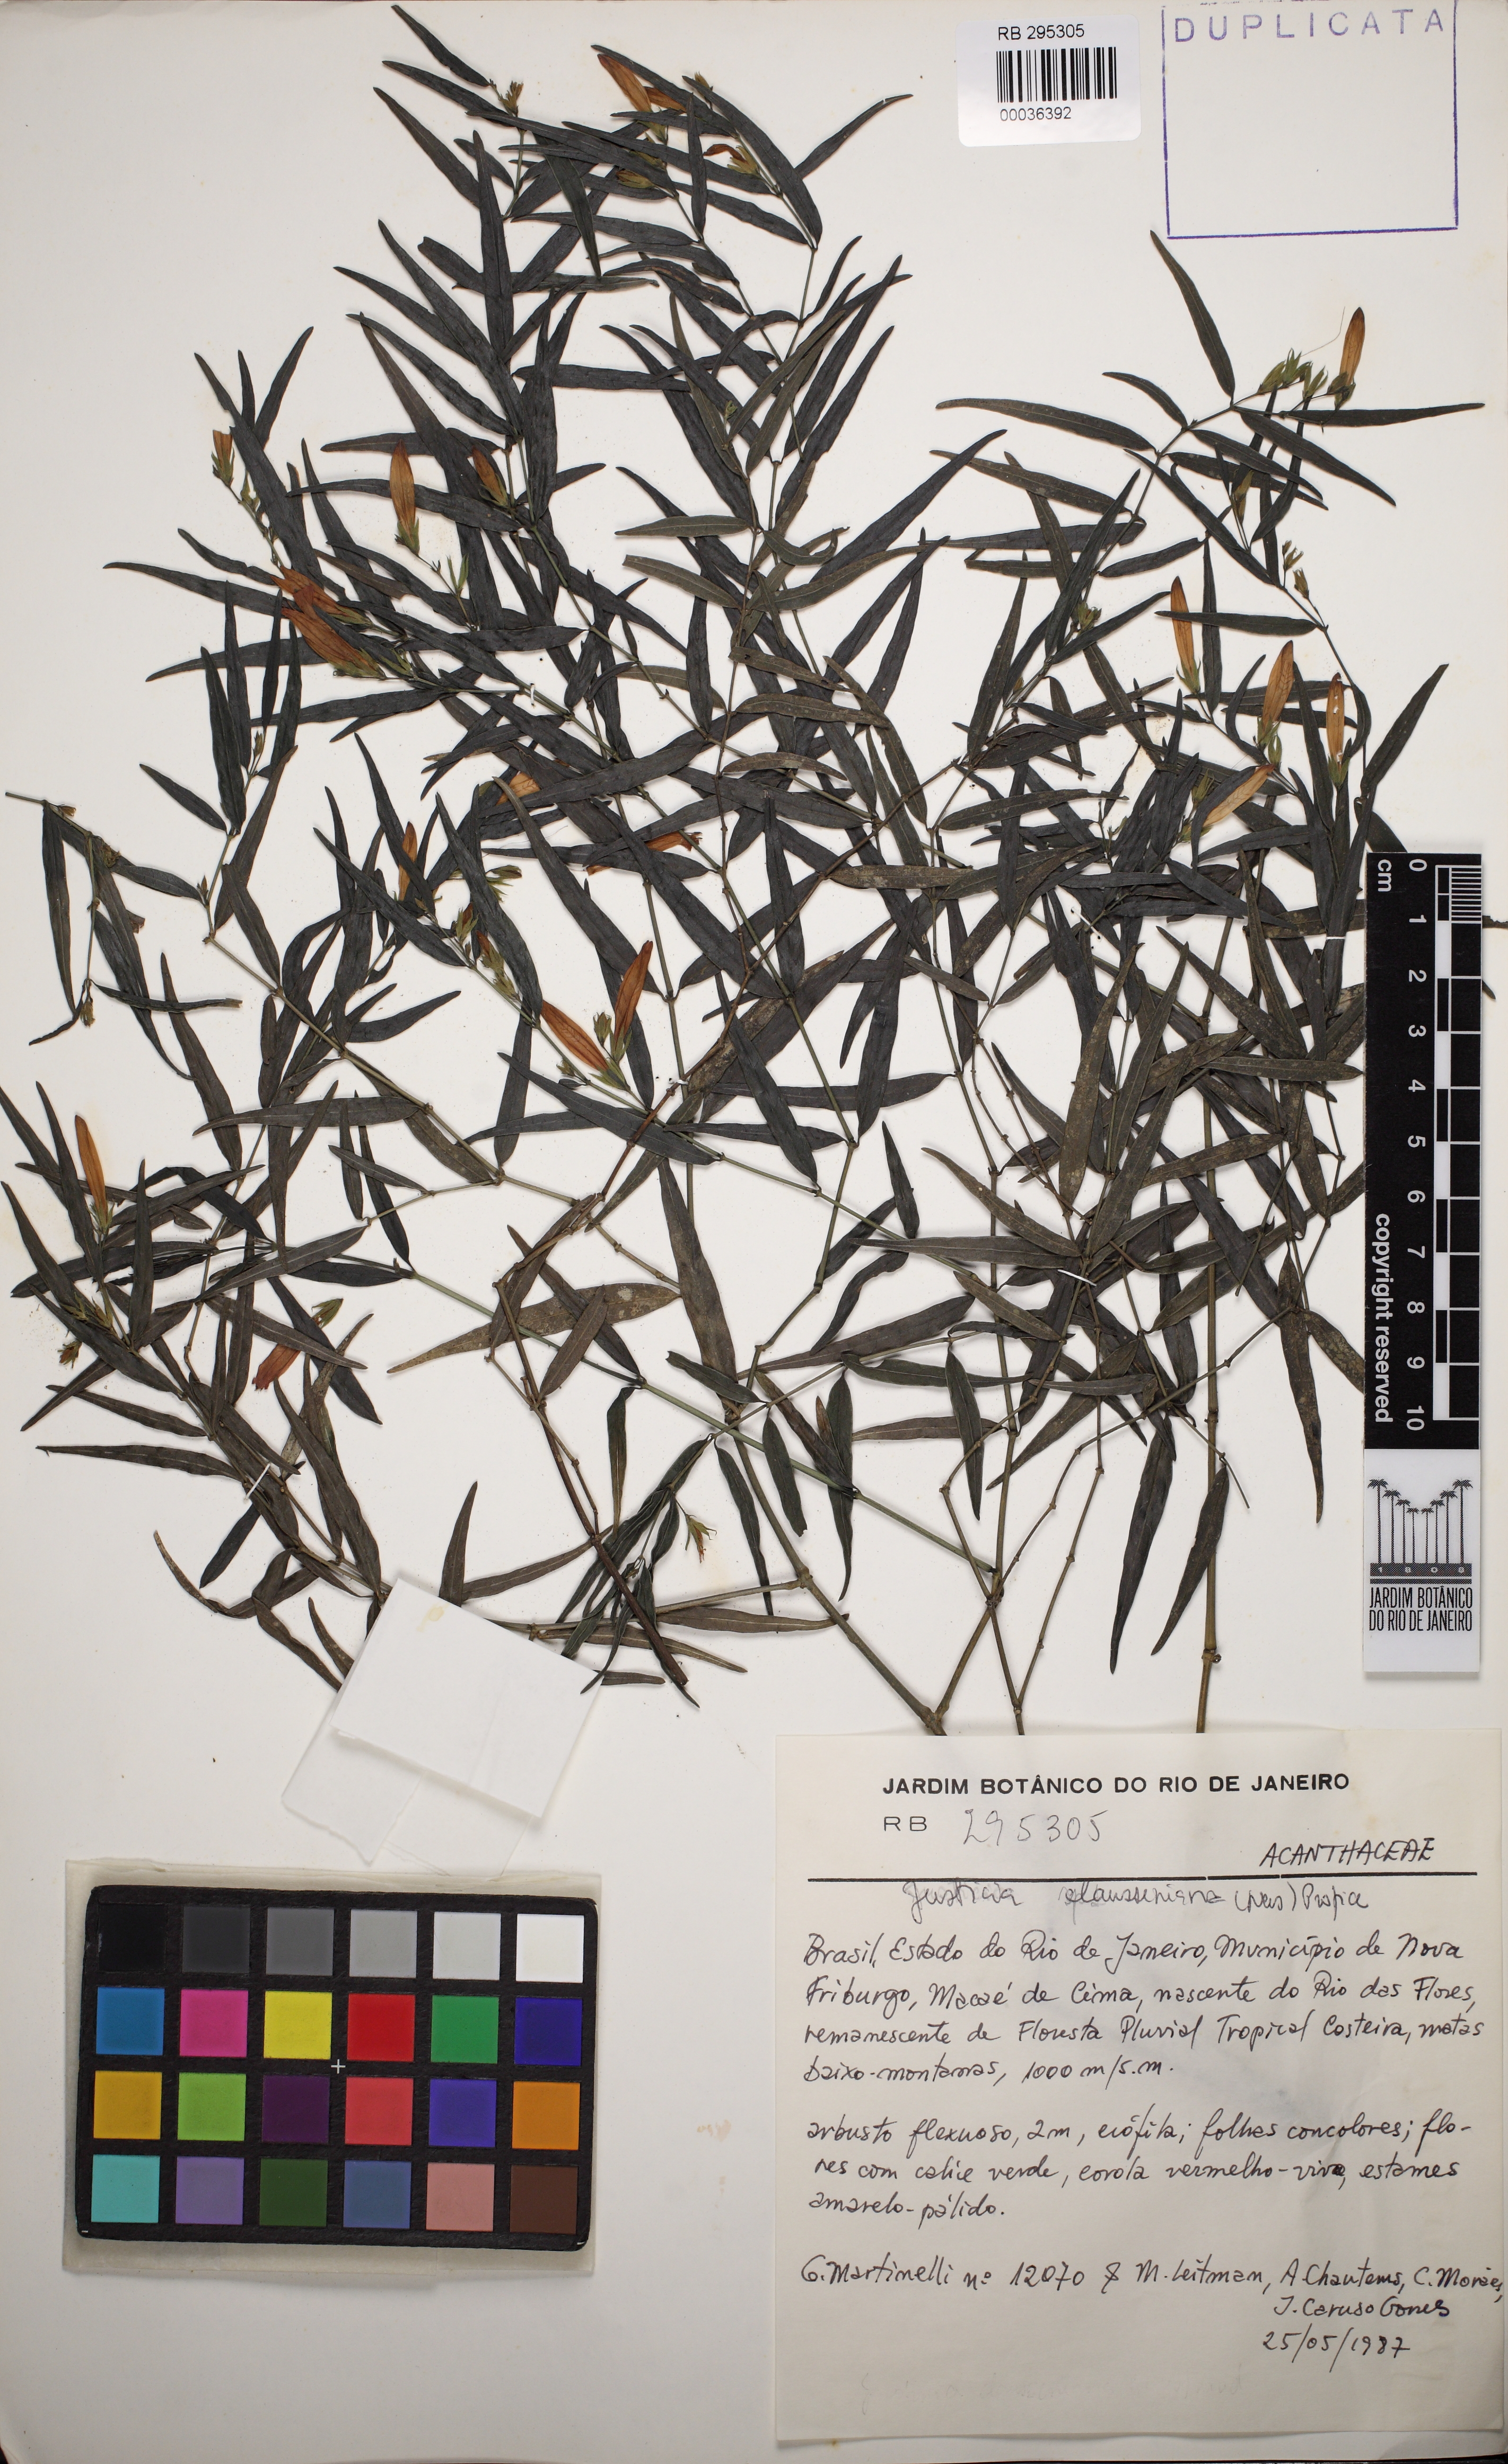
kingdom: Plantae
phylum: Tracheophyta
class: Magnoliopsida
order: Lamiales
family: Acanthaceae
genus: Justicia
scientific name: Justicia clausseniana
